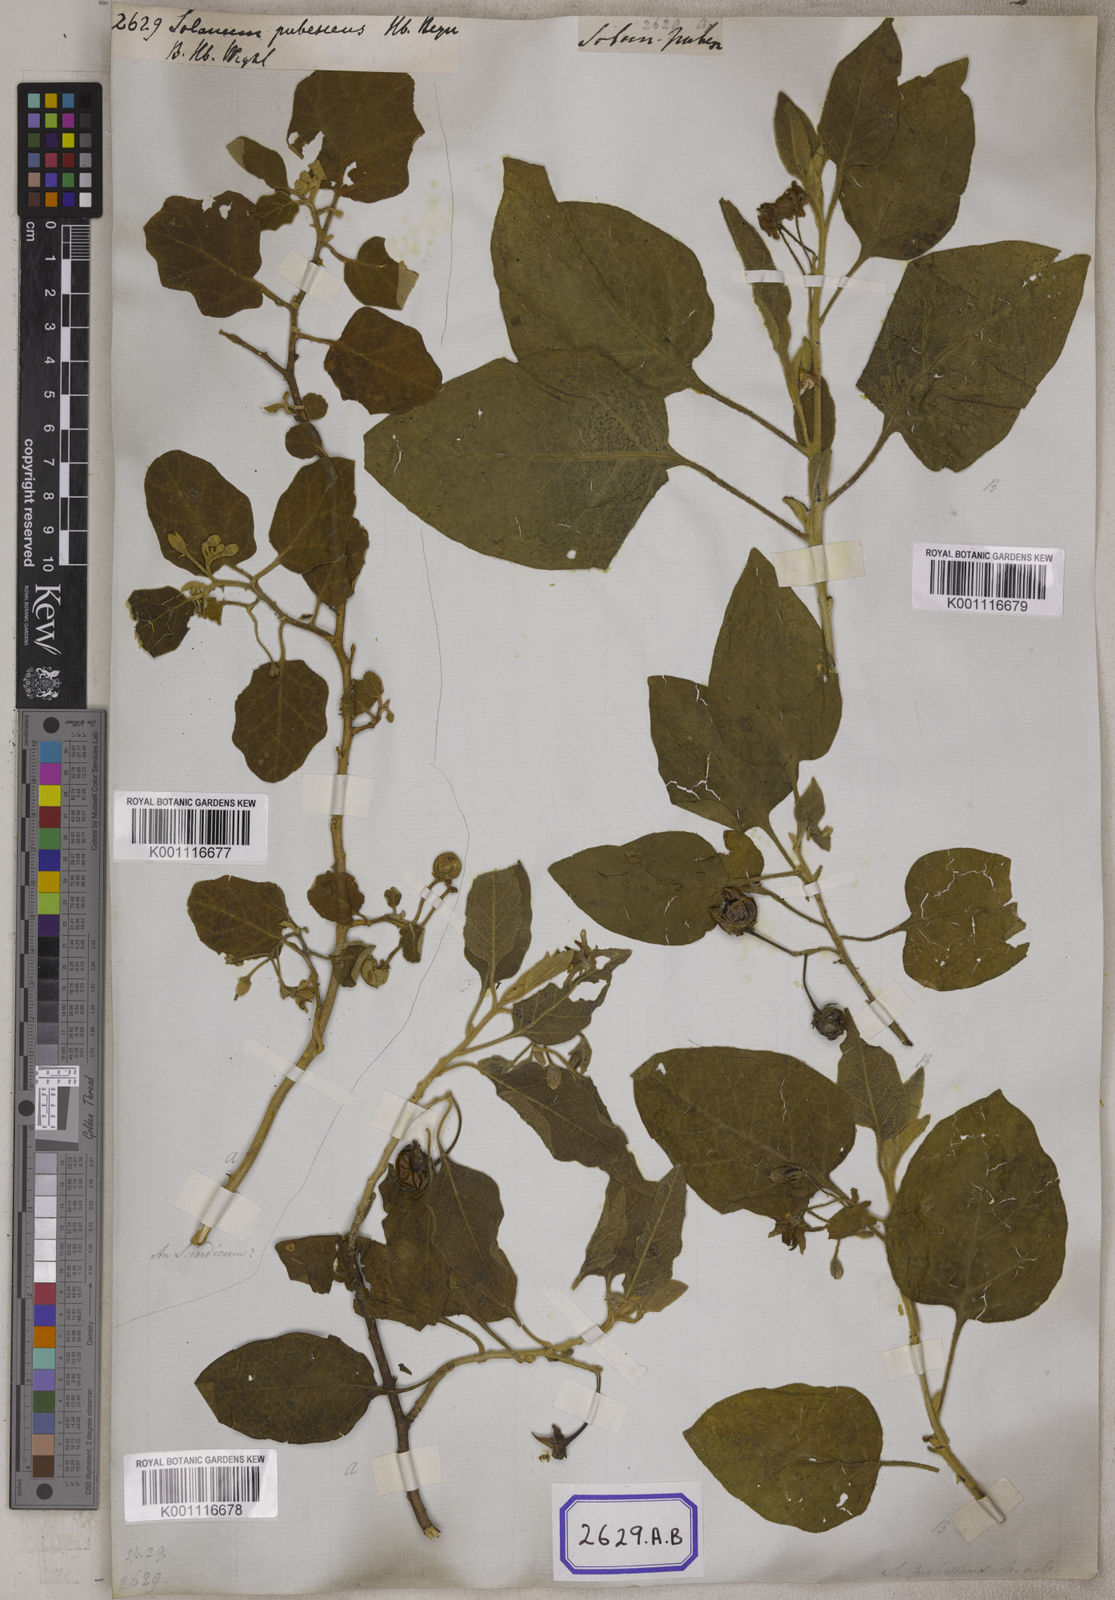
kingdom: Plantae
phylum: Tracheophyta
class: Magnoliopsida
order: Solanales
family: Solanaceae
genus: Solanum
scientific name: Solanum pubescens
